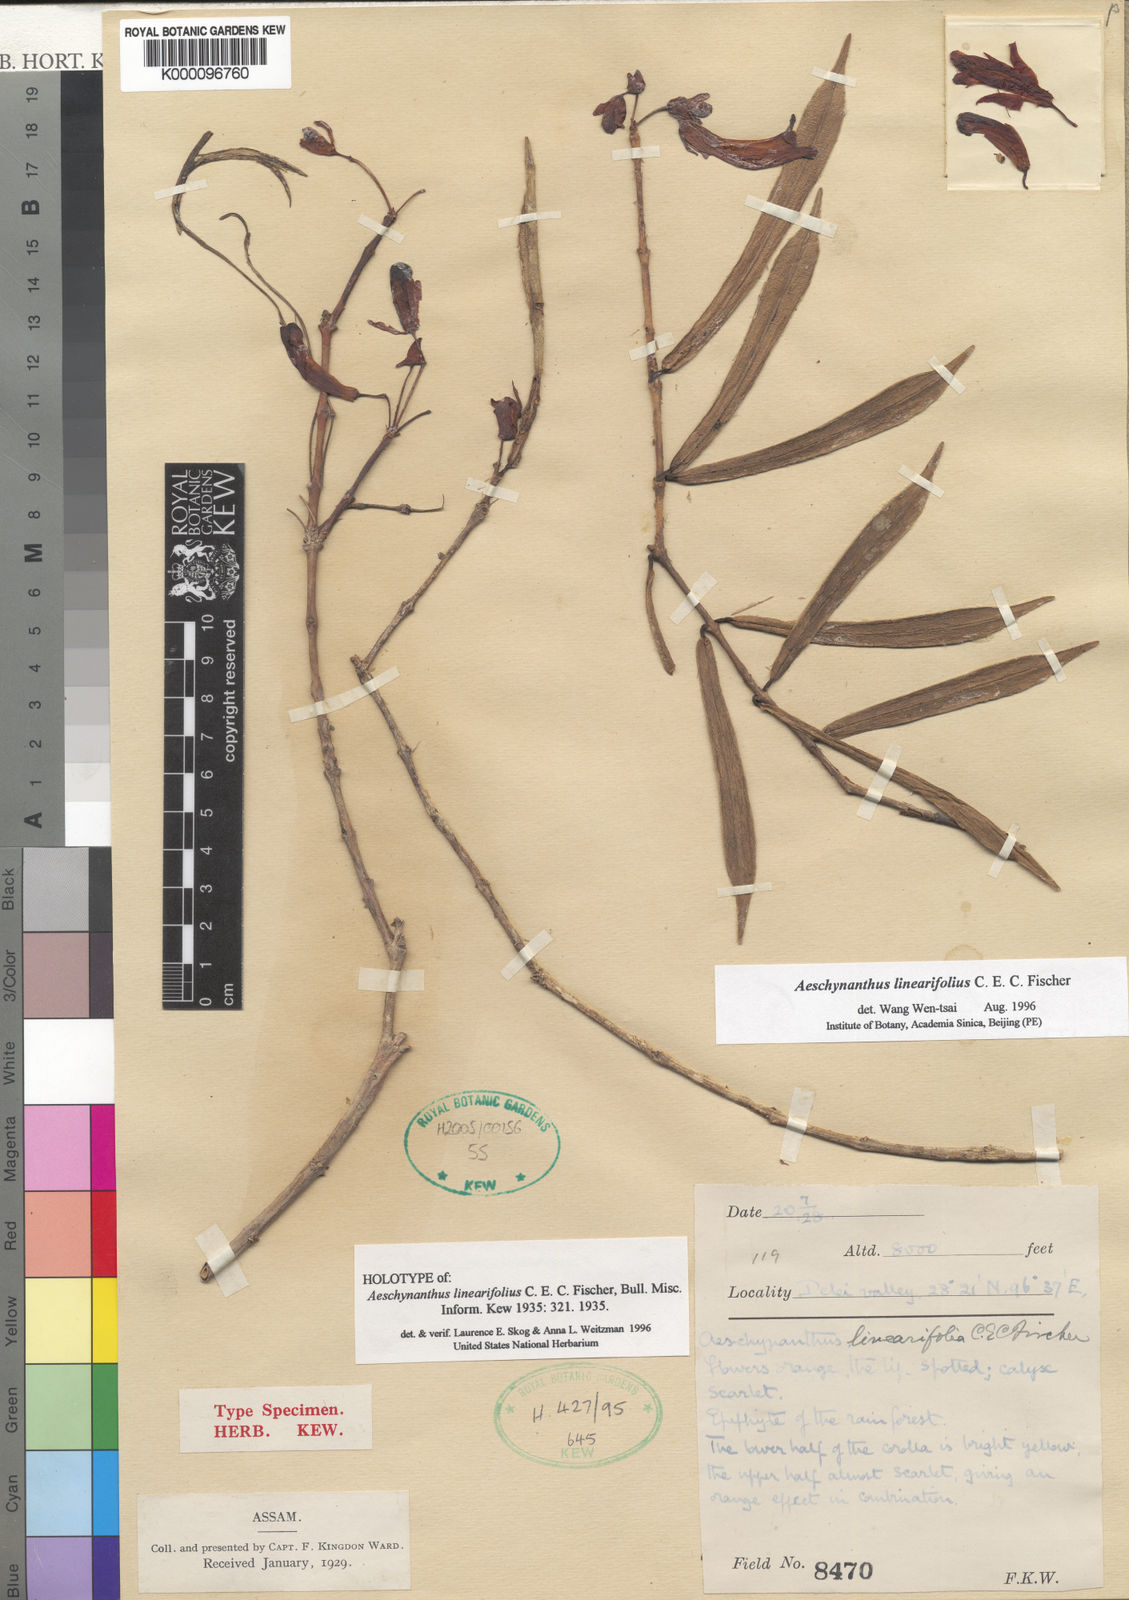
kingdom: Plantae
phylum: Tracheophyta
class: Magnoliopsida
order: Lamiales
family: Gesneriaceae
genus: Aeschynanthus
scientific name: Aeschynanthus linearifolius
